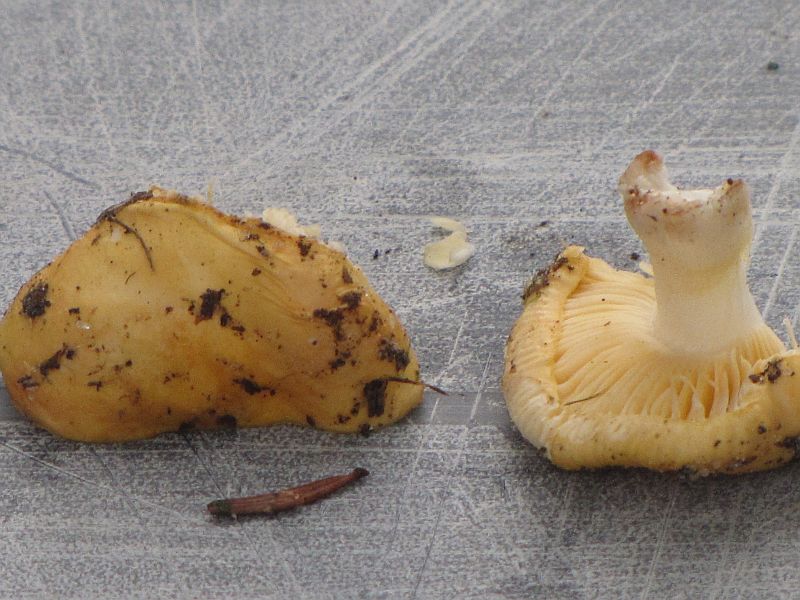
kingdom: Fungi
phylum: Basidiomycota
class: Agaricomycetes
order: Russulales
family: Russulaceae
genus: Russula
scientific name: Russula risigallina
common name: abrikos-skørhat
